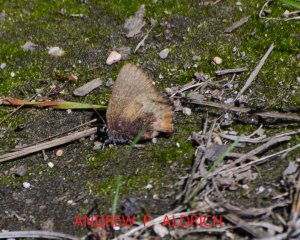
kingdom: Animalia
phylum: Arthropoda
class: Insecta
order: Lepidoptera
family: Lycaenidae
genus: Incisalia
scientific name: Incisalia irioides
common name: Brown Elfin
